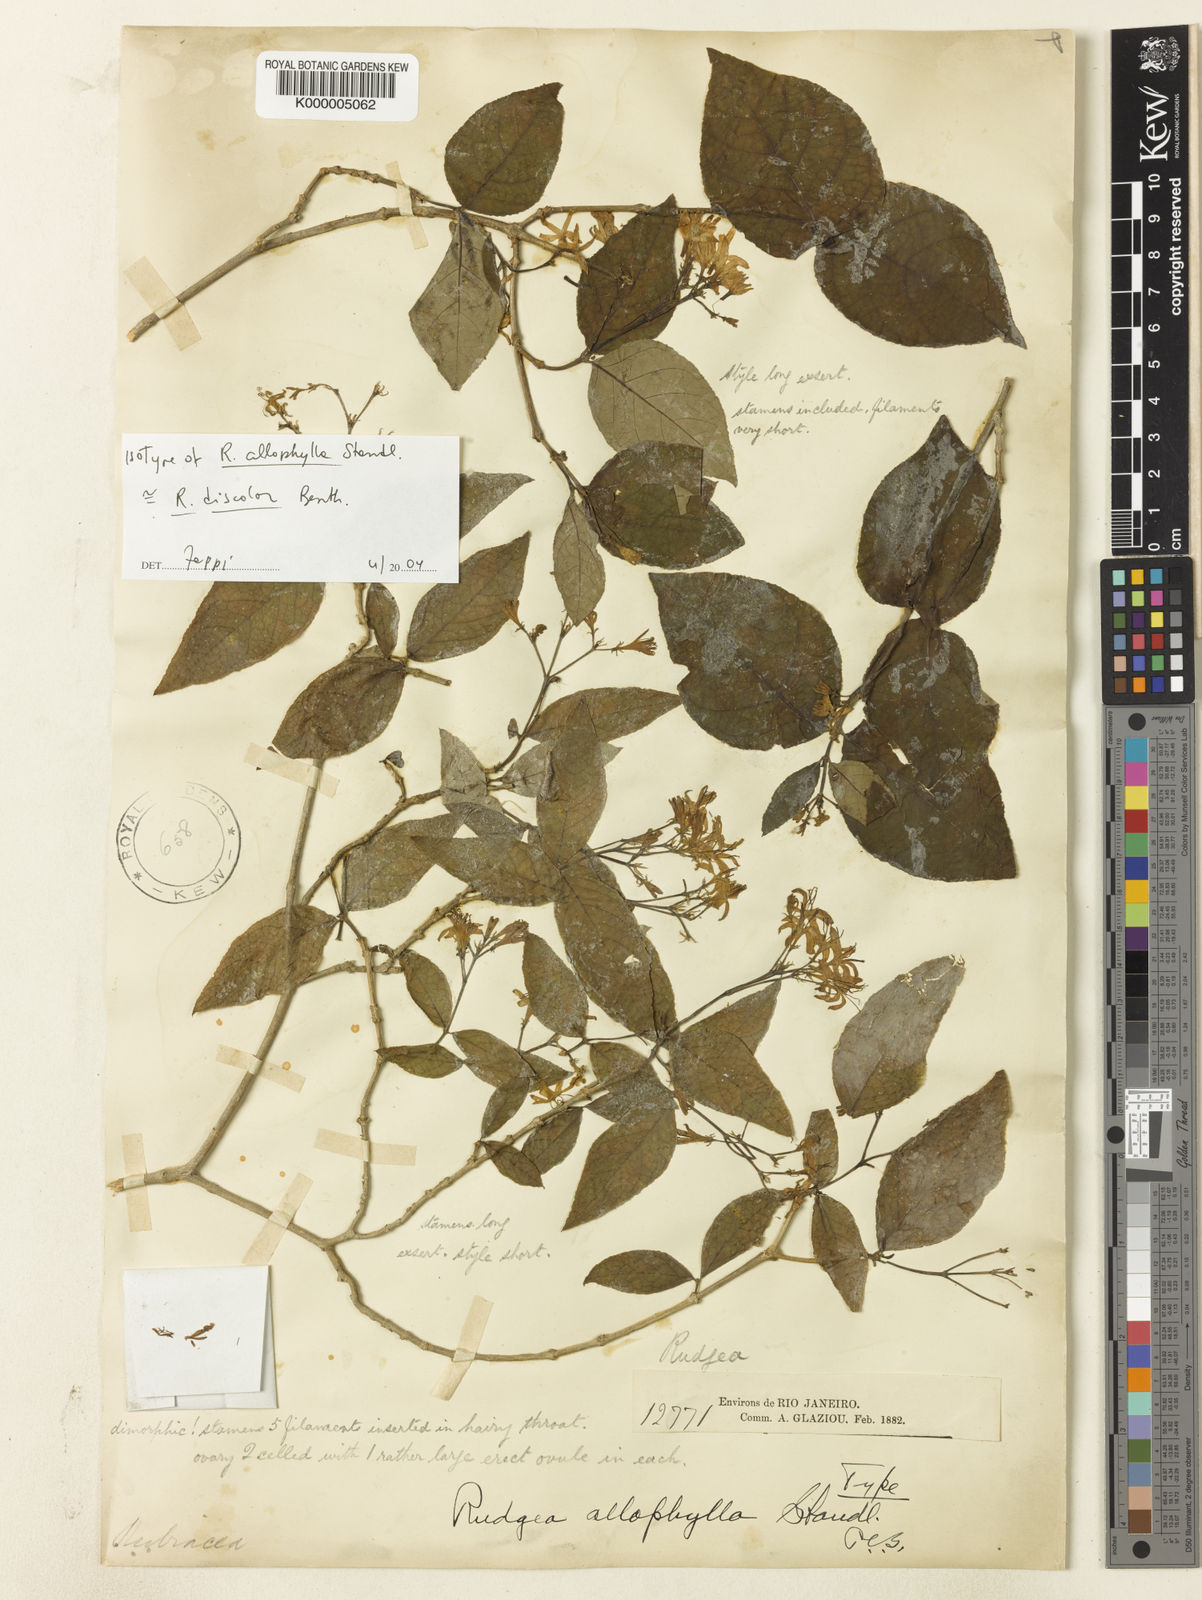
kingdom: Plantae
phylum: Tracheophyta
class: Magnoliopsida
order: Gentianales
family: Rubiaceae
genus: Rudgea
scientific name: Rudgea discolor
